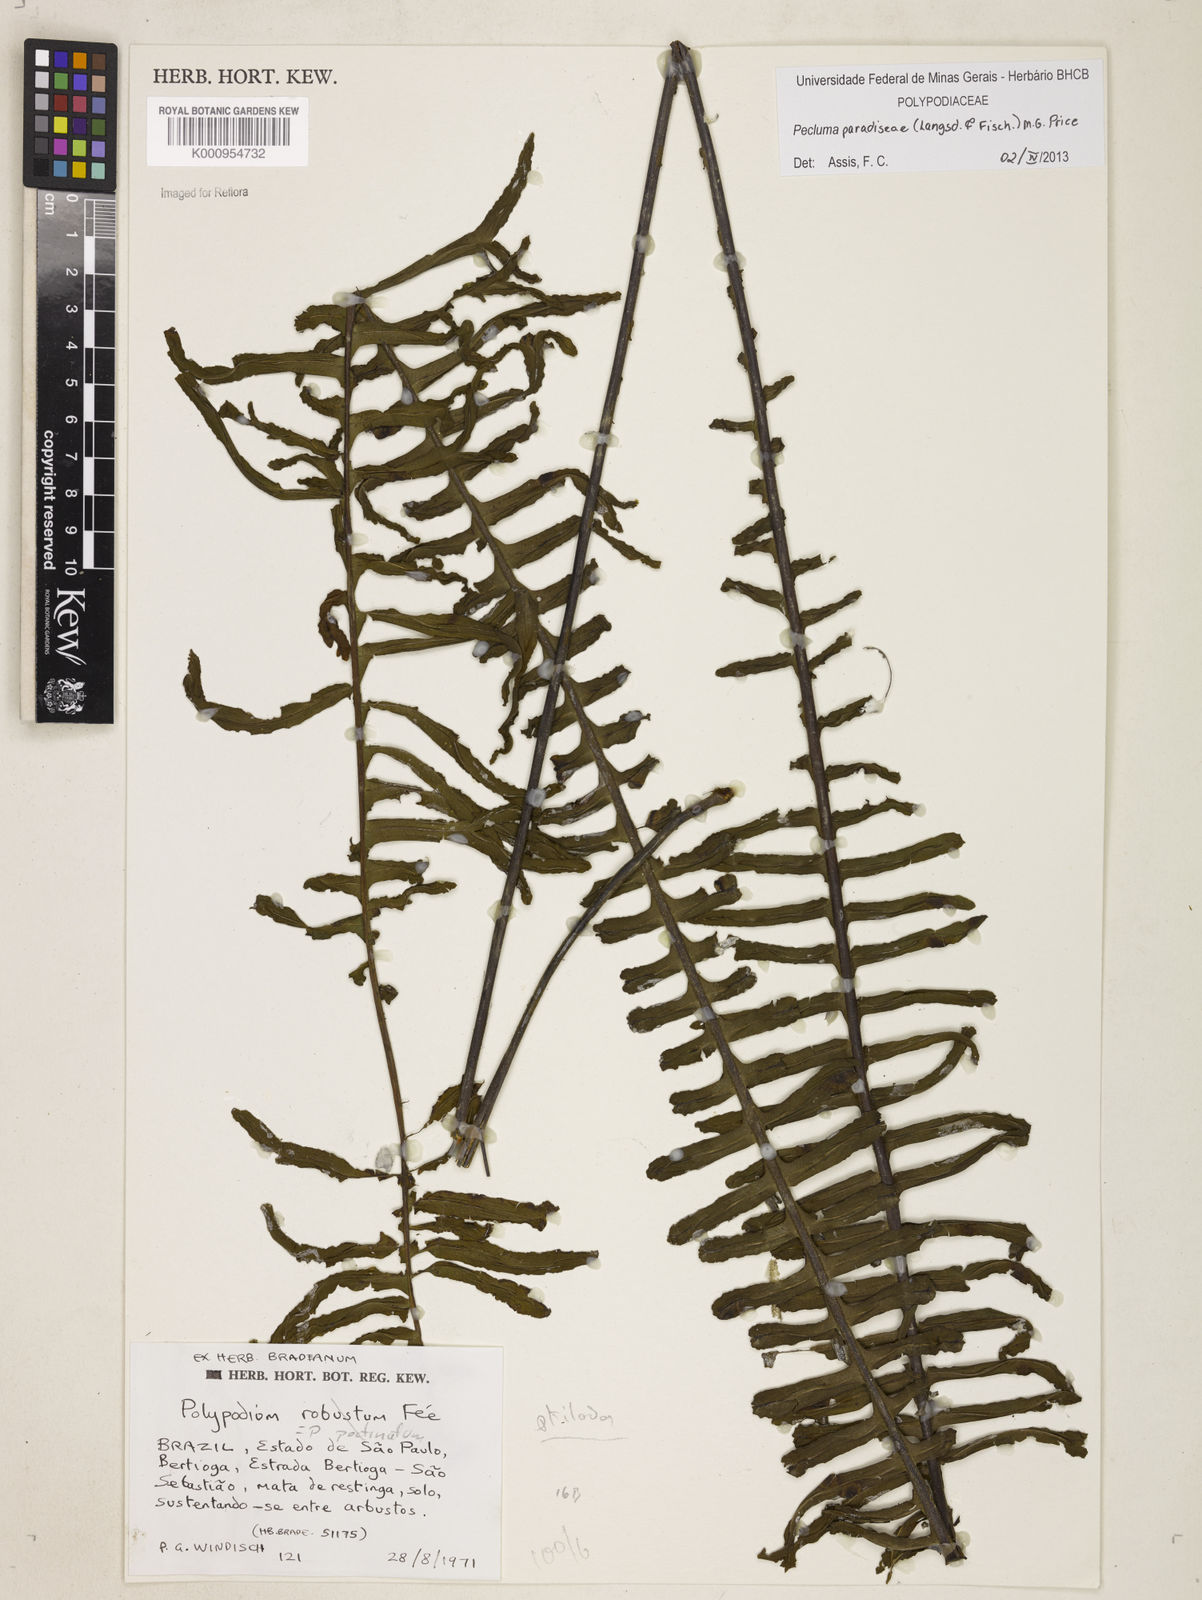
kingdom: Plantae
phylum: Tracheophyta
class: Polypodiopsida
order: Polypodiales
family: Polypodiaceae
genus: Pecluma
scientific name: Pecluma paradiseae
